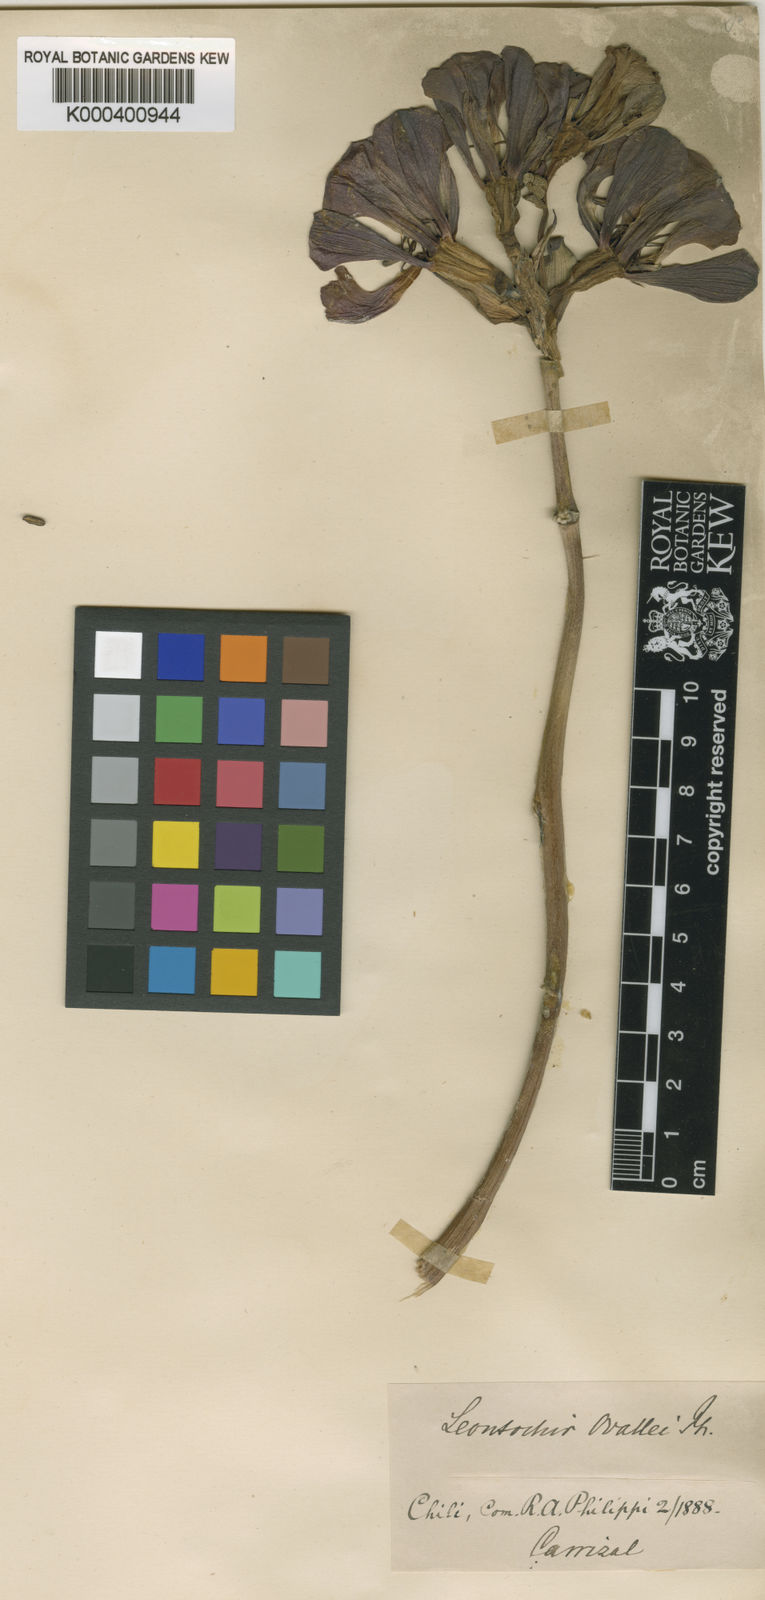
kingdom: Plantae
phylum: Tracheophyta
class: Liliopsida
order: Liliales
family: Alstroemeriaceae
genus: Bomarea
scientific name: Bomarea ovallei
